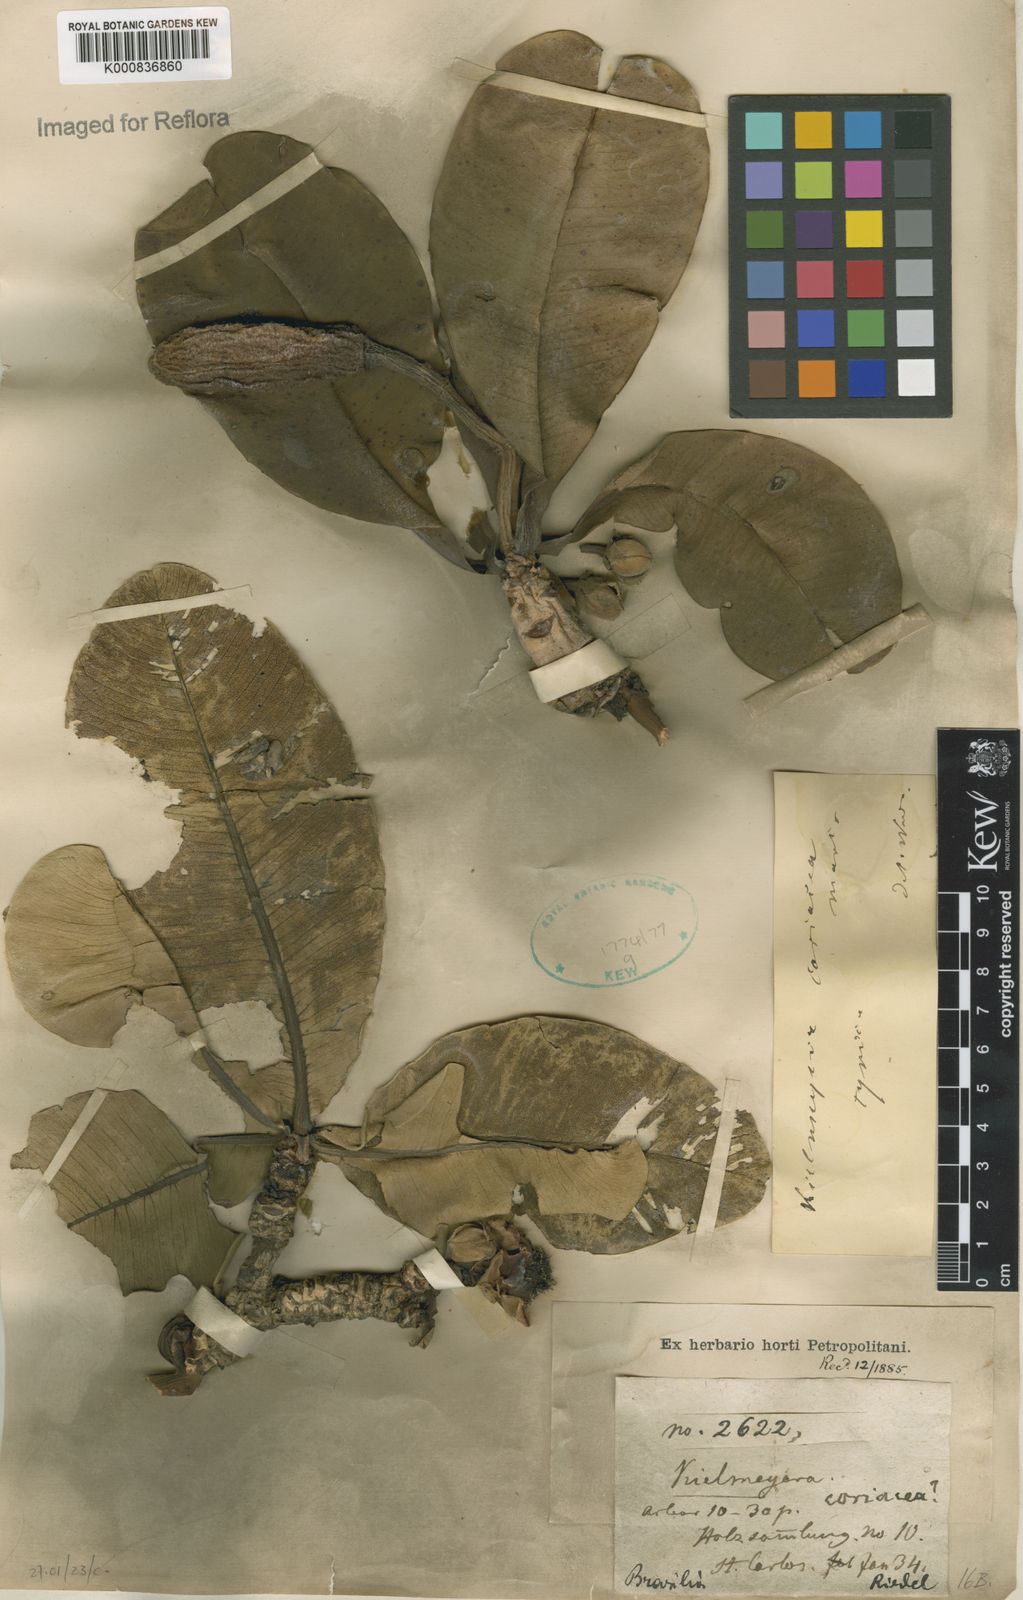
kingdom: Plantae
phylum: Tracheophyta
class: Magnoliopsida
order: Malpighiales
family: Calophyllaceae
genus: Kielmeyera
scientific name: Kielmeyera coriacea
